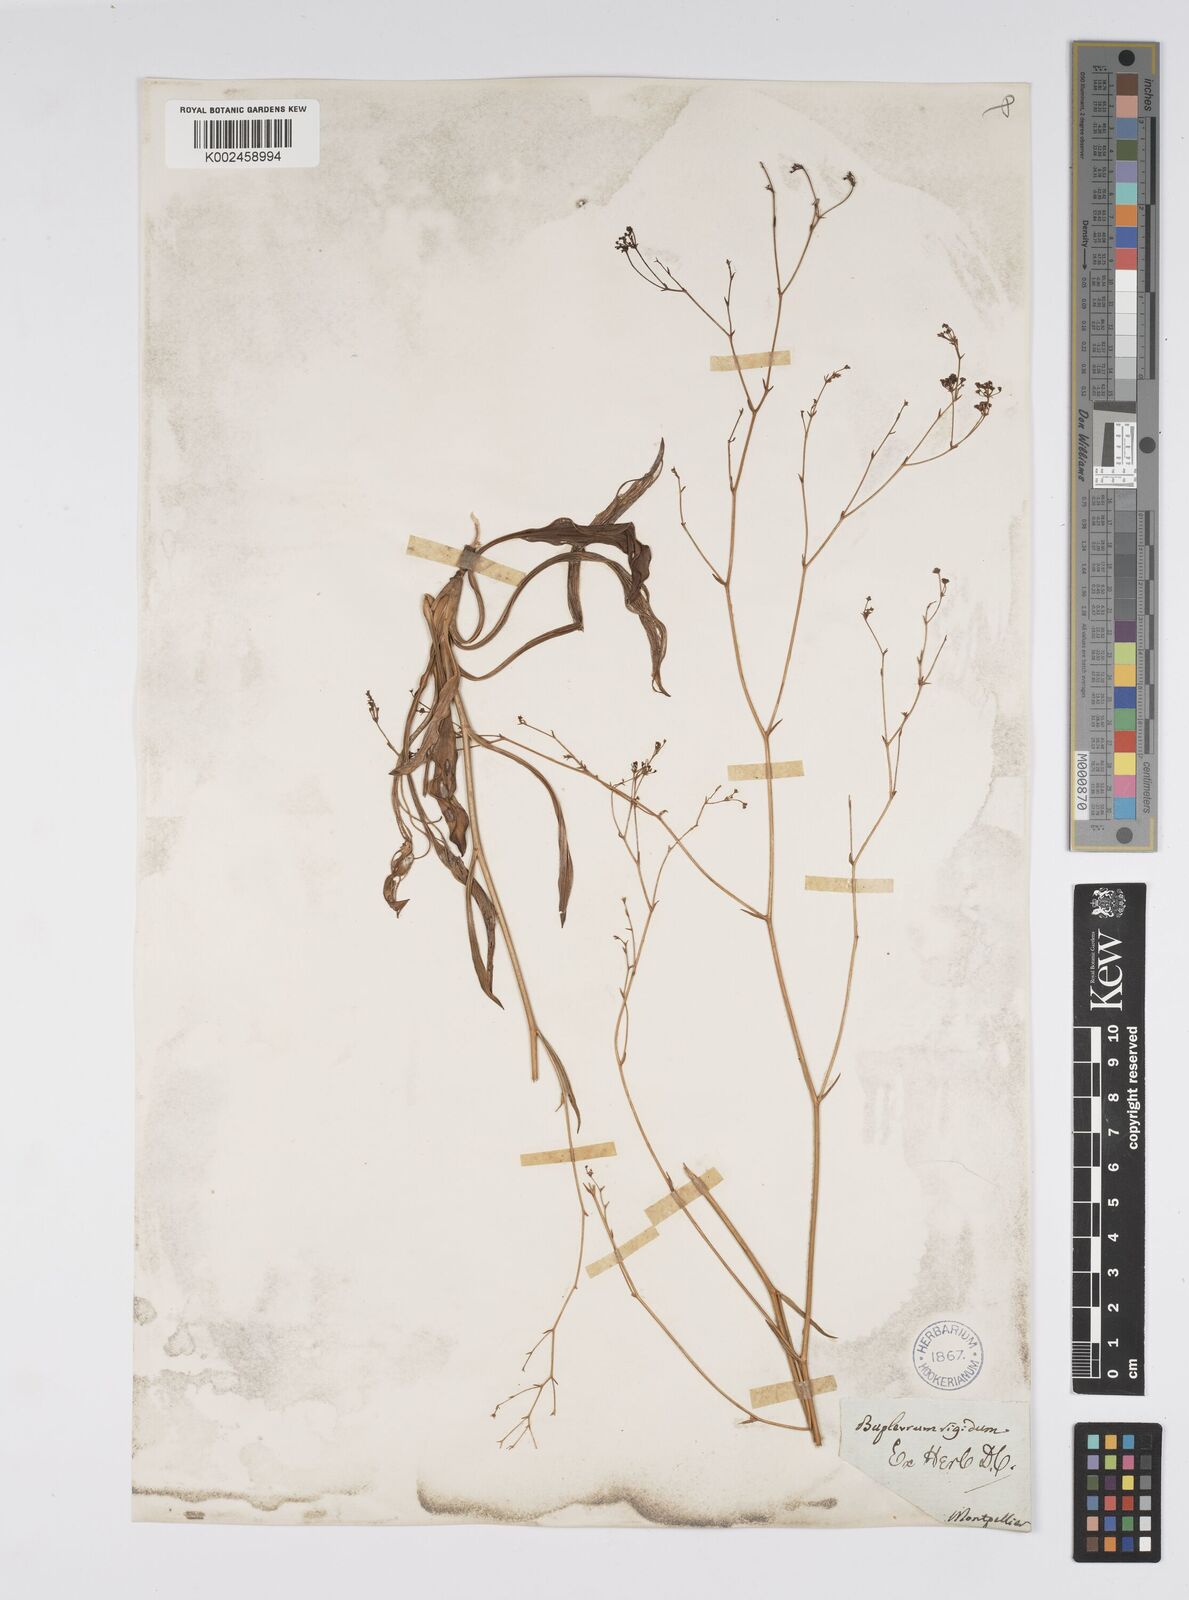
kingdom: Plantae
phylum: Tracheophyta
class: Magnoliopsida
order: Apiales
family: Apiaceae
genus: Bupleurum
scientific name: Bupleurum rigidum
